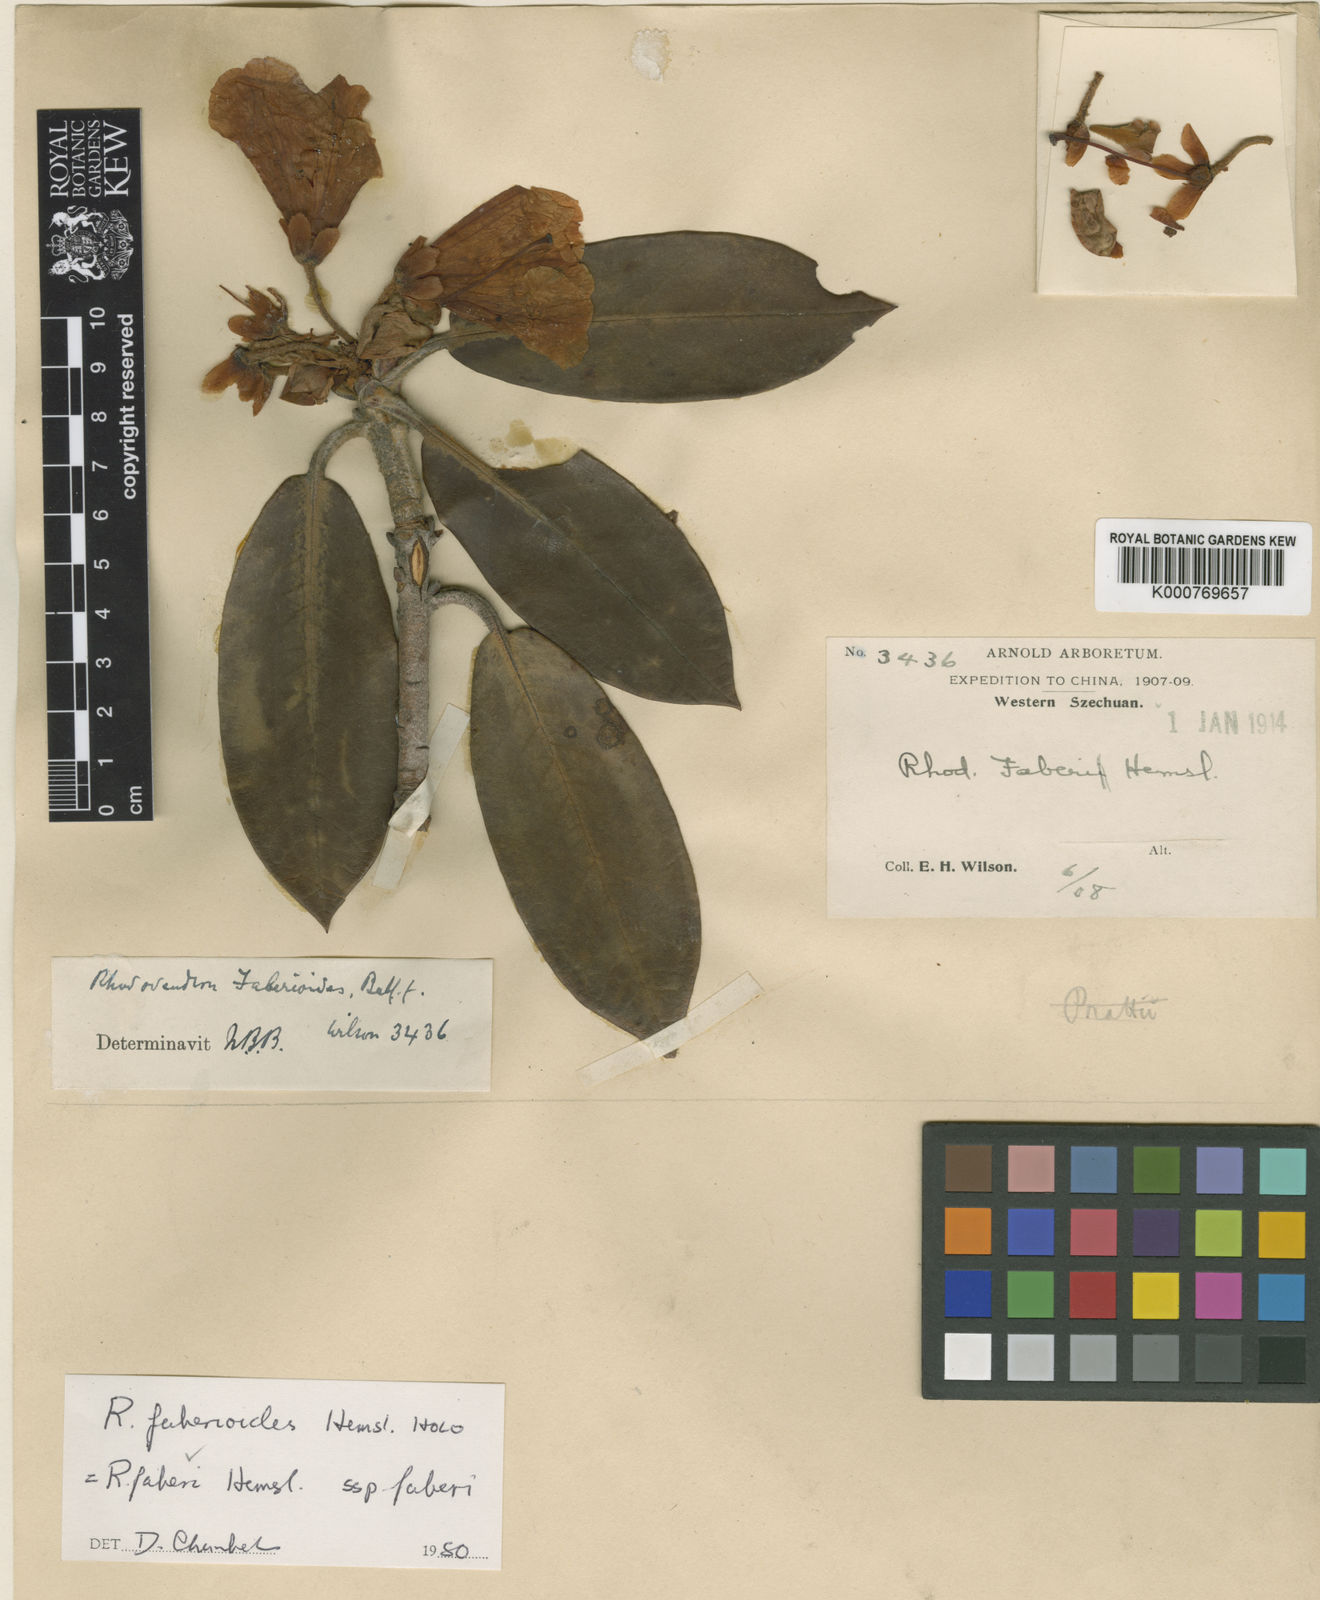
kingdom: Plantae
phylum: Tracheophyta
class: Magnoliopsida
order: Ericales
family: Ericaceae
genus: Rhododendron
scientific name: Rhododendron faberi
